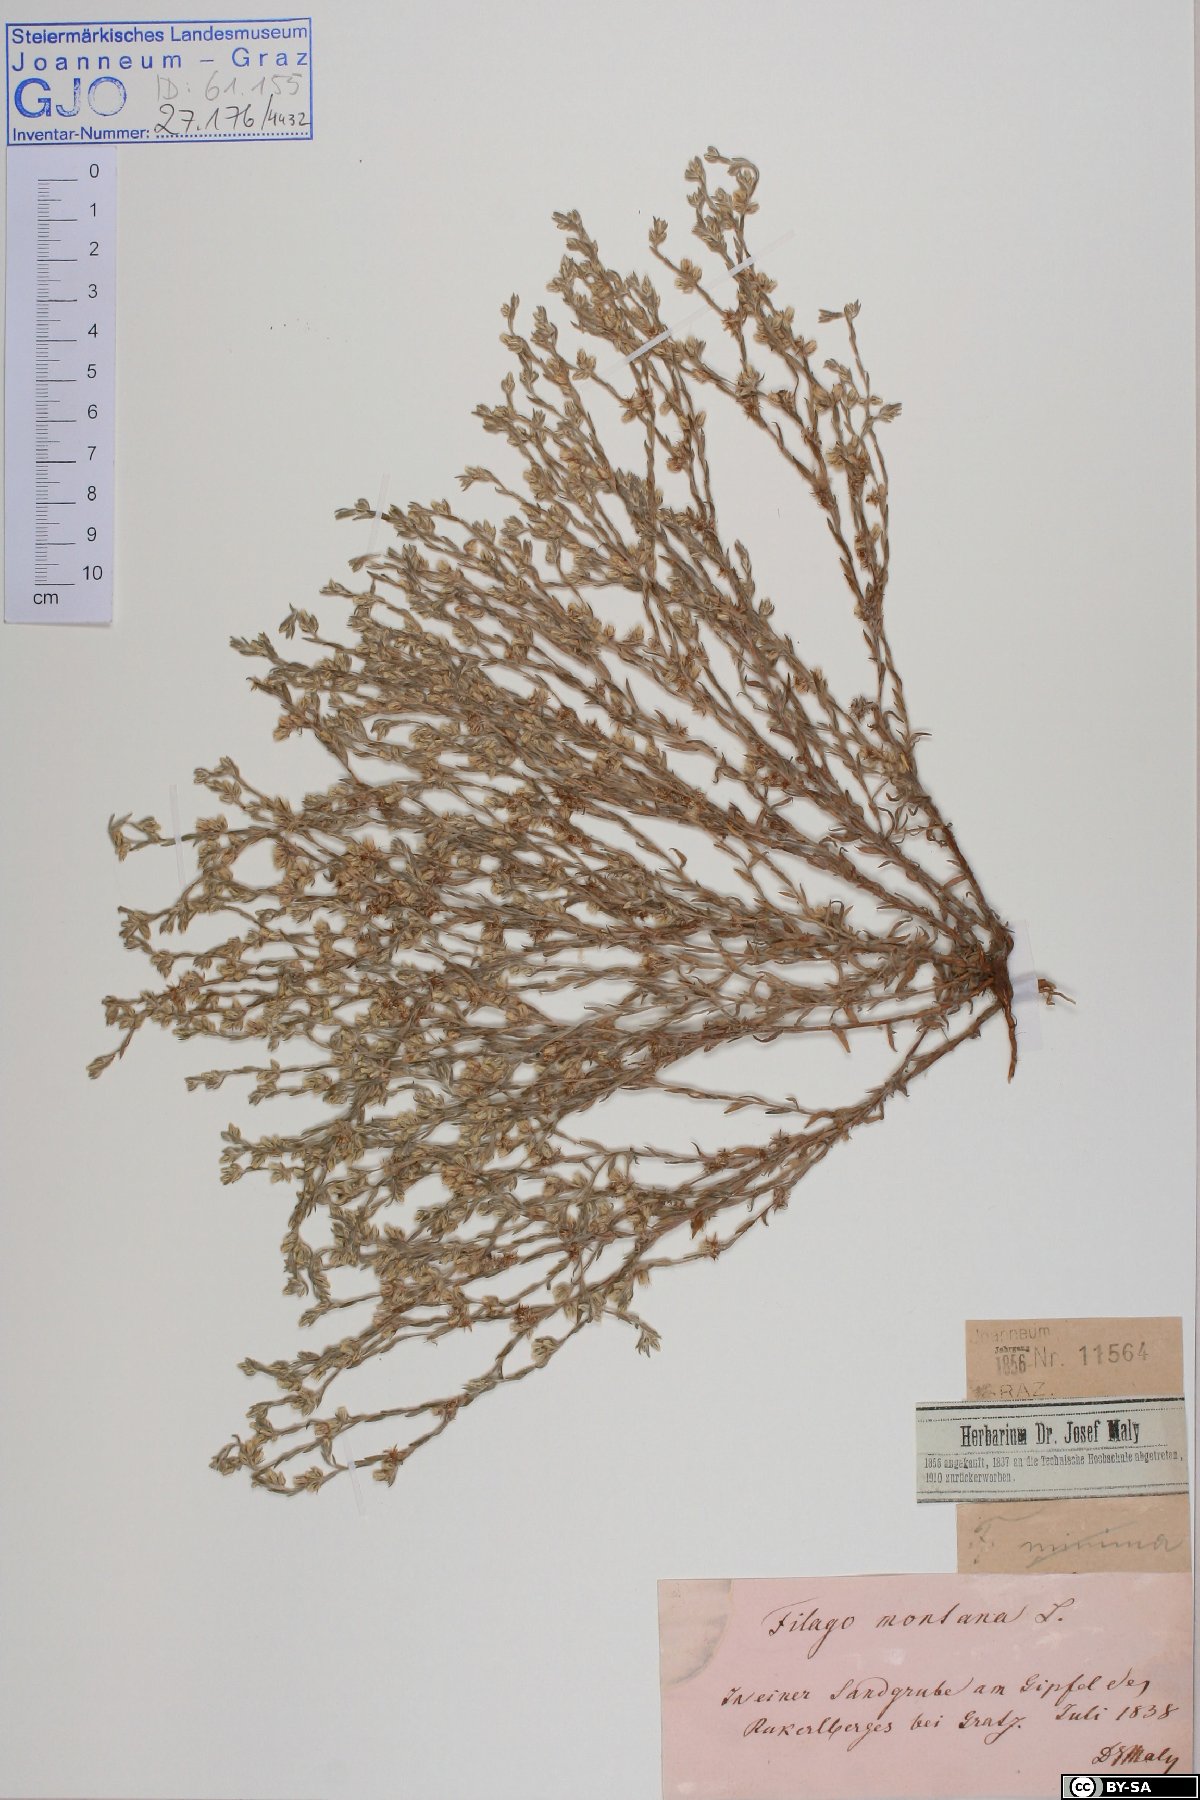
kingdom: Plantae
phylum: Tracheophyta
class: Magnoliopsida
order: Asterales
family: Asteraceae
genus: Logfia
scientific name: Logfia minima
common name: Little cottonrose
